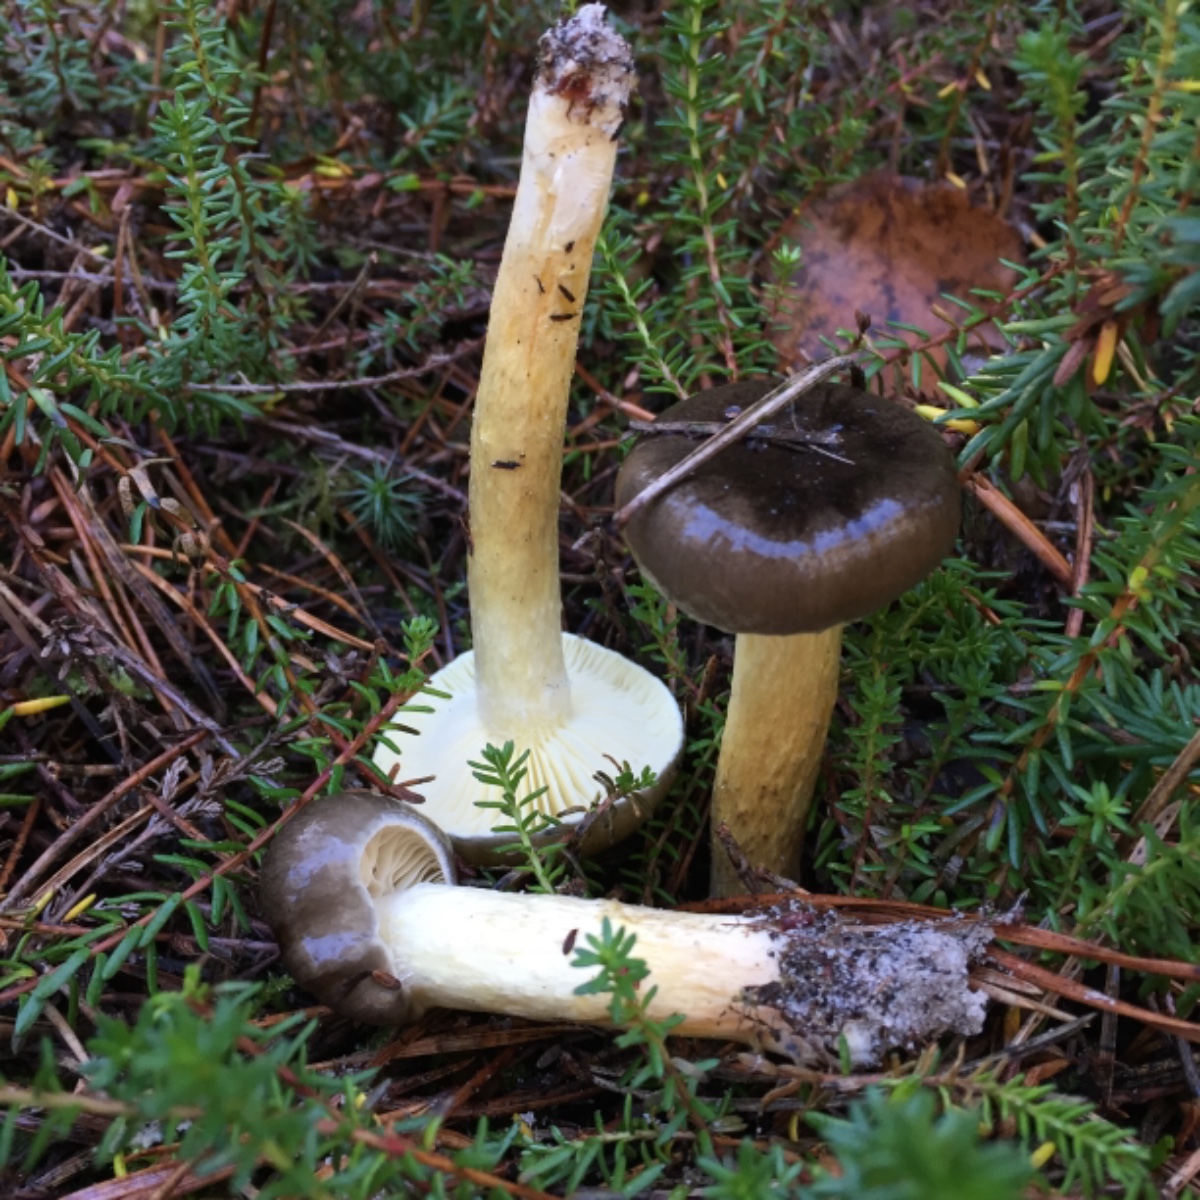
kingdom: Fungi
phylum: Basidiomycota
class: Agaricomycetes
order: Agaricales
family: Hygrophoraceae
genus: Hygrophorus
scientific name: Hygrophorus hypothejus
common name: frost-sneglehat
